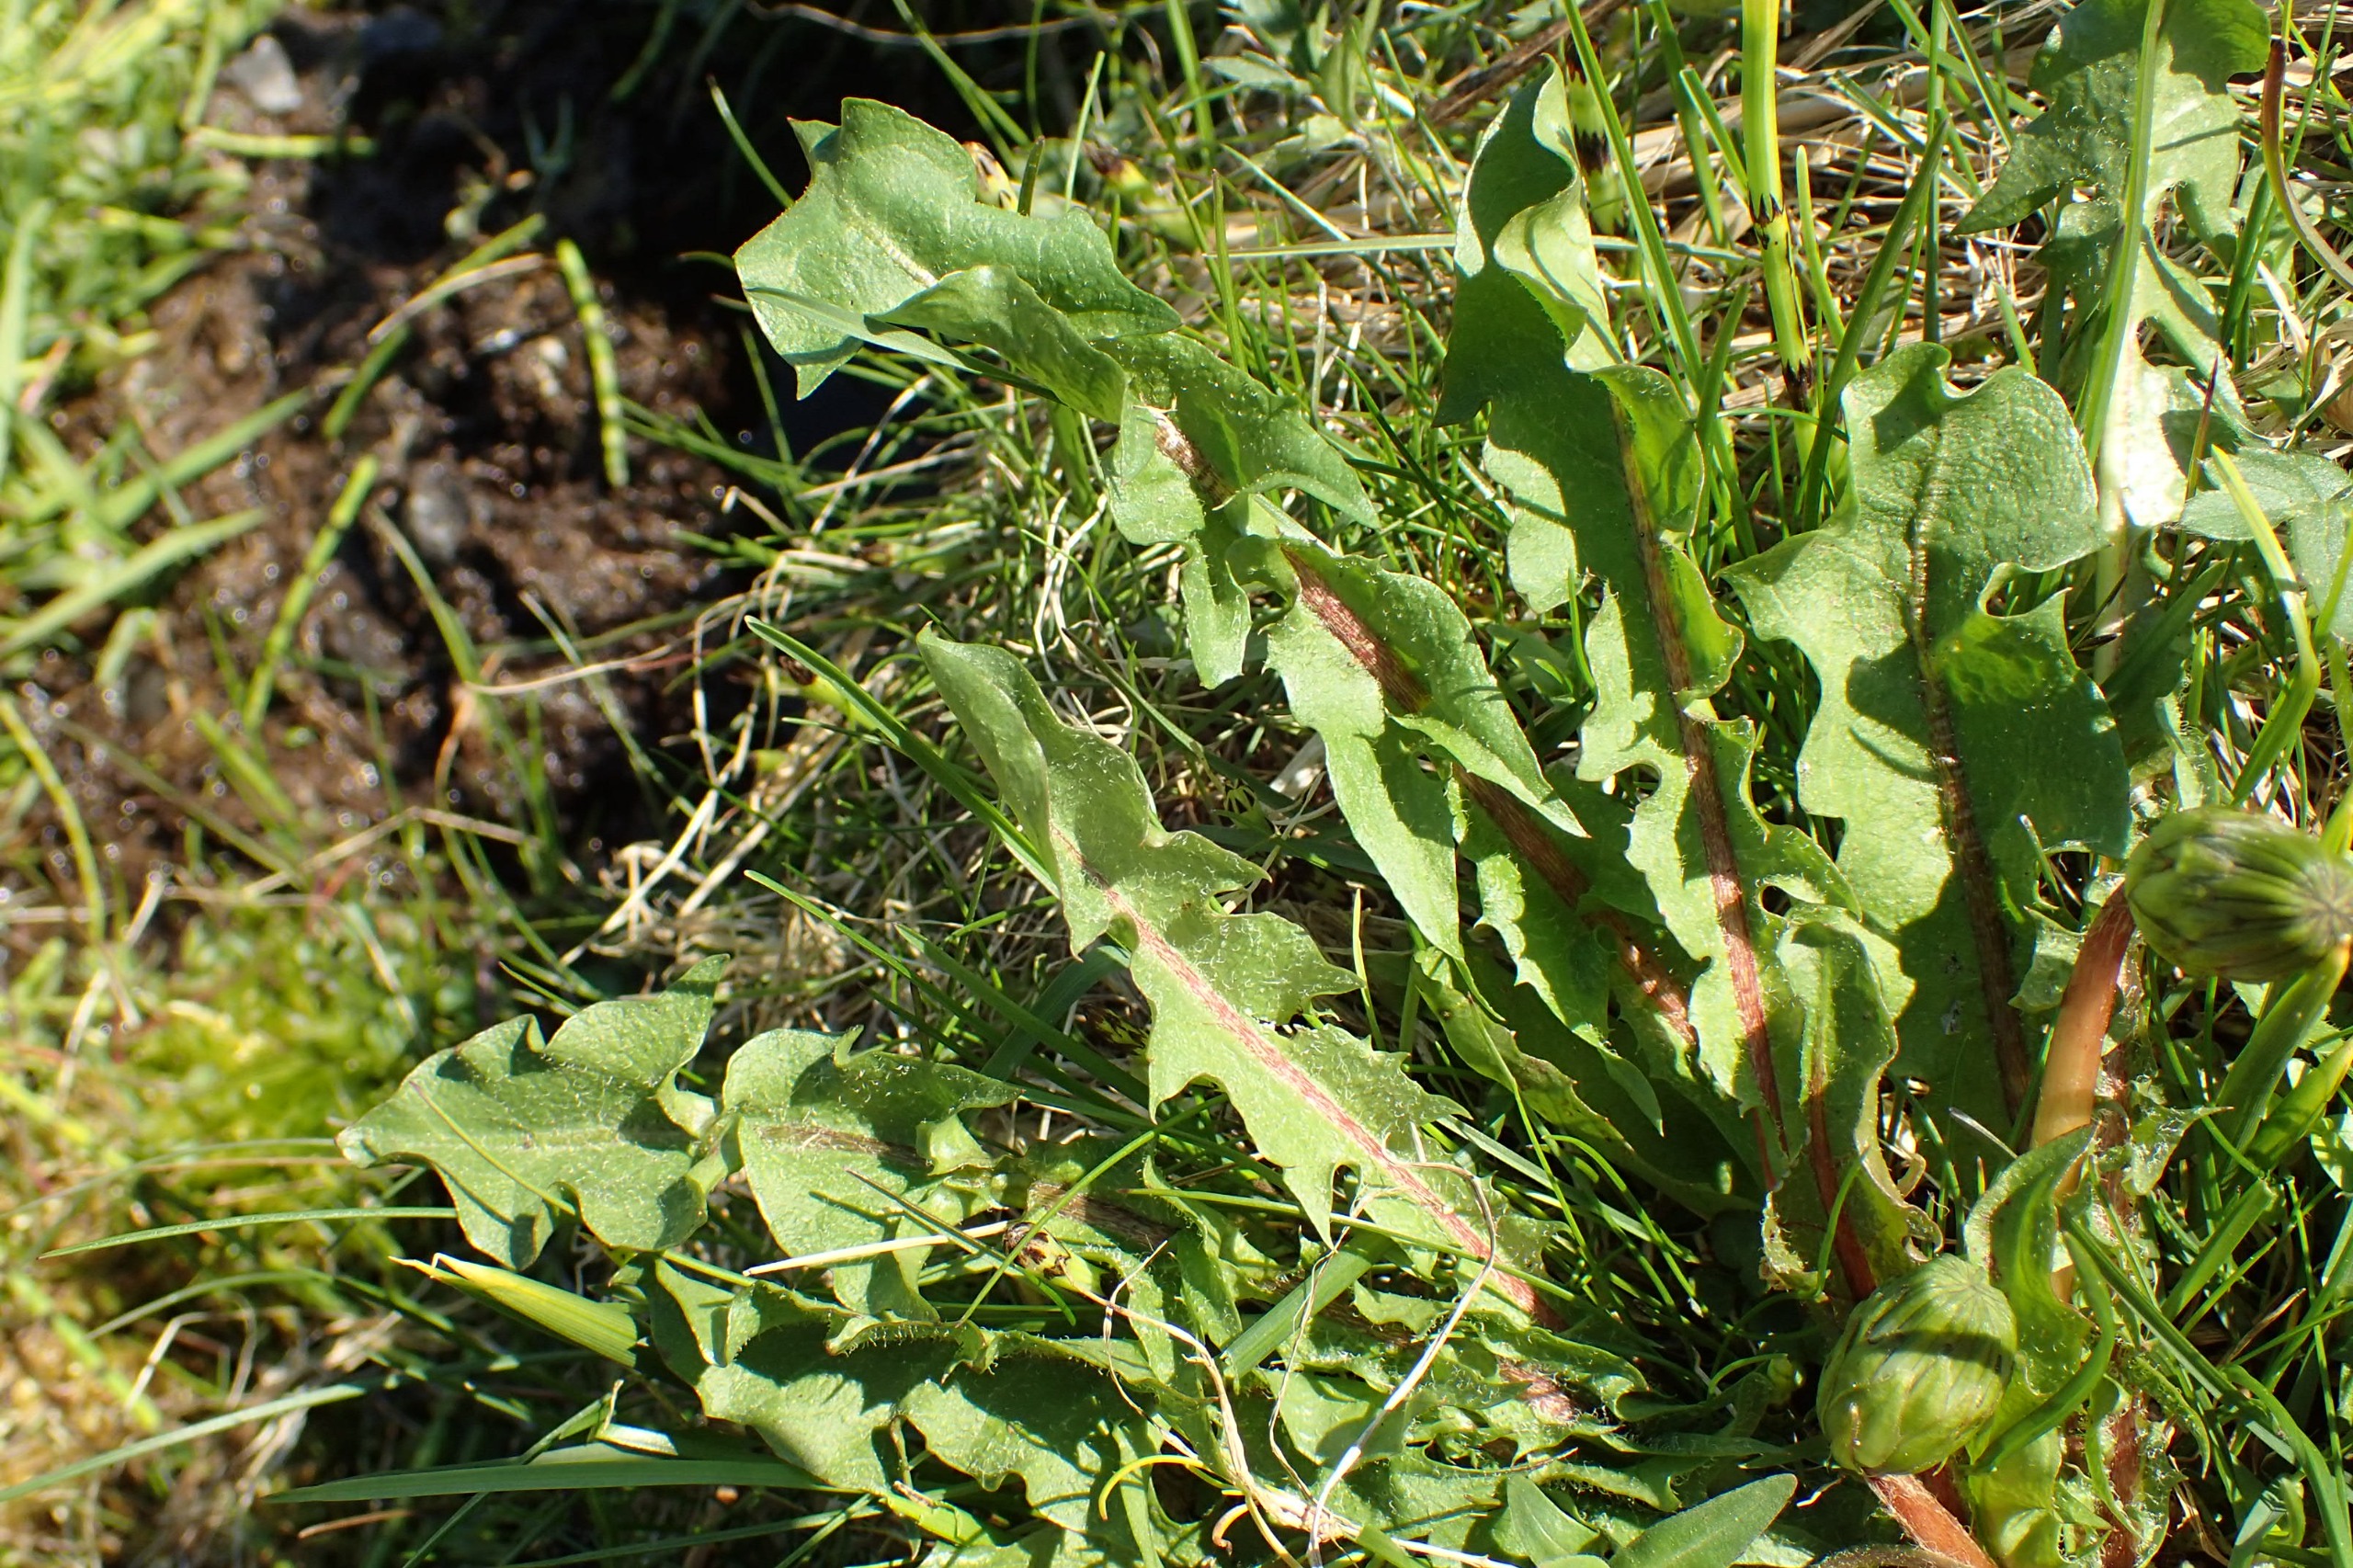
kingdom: Plantae
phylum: Tracheophyta
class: Magnoliopsida
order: Asterales
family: Asteraceae
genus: Taraxacum
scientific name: Taraxacum faeroense
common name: Kimbrisk atlantmælkebøtte
